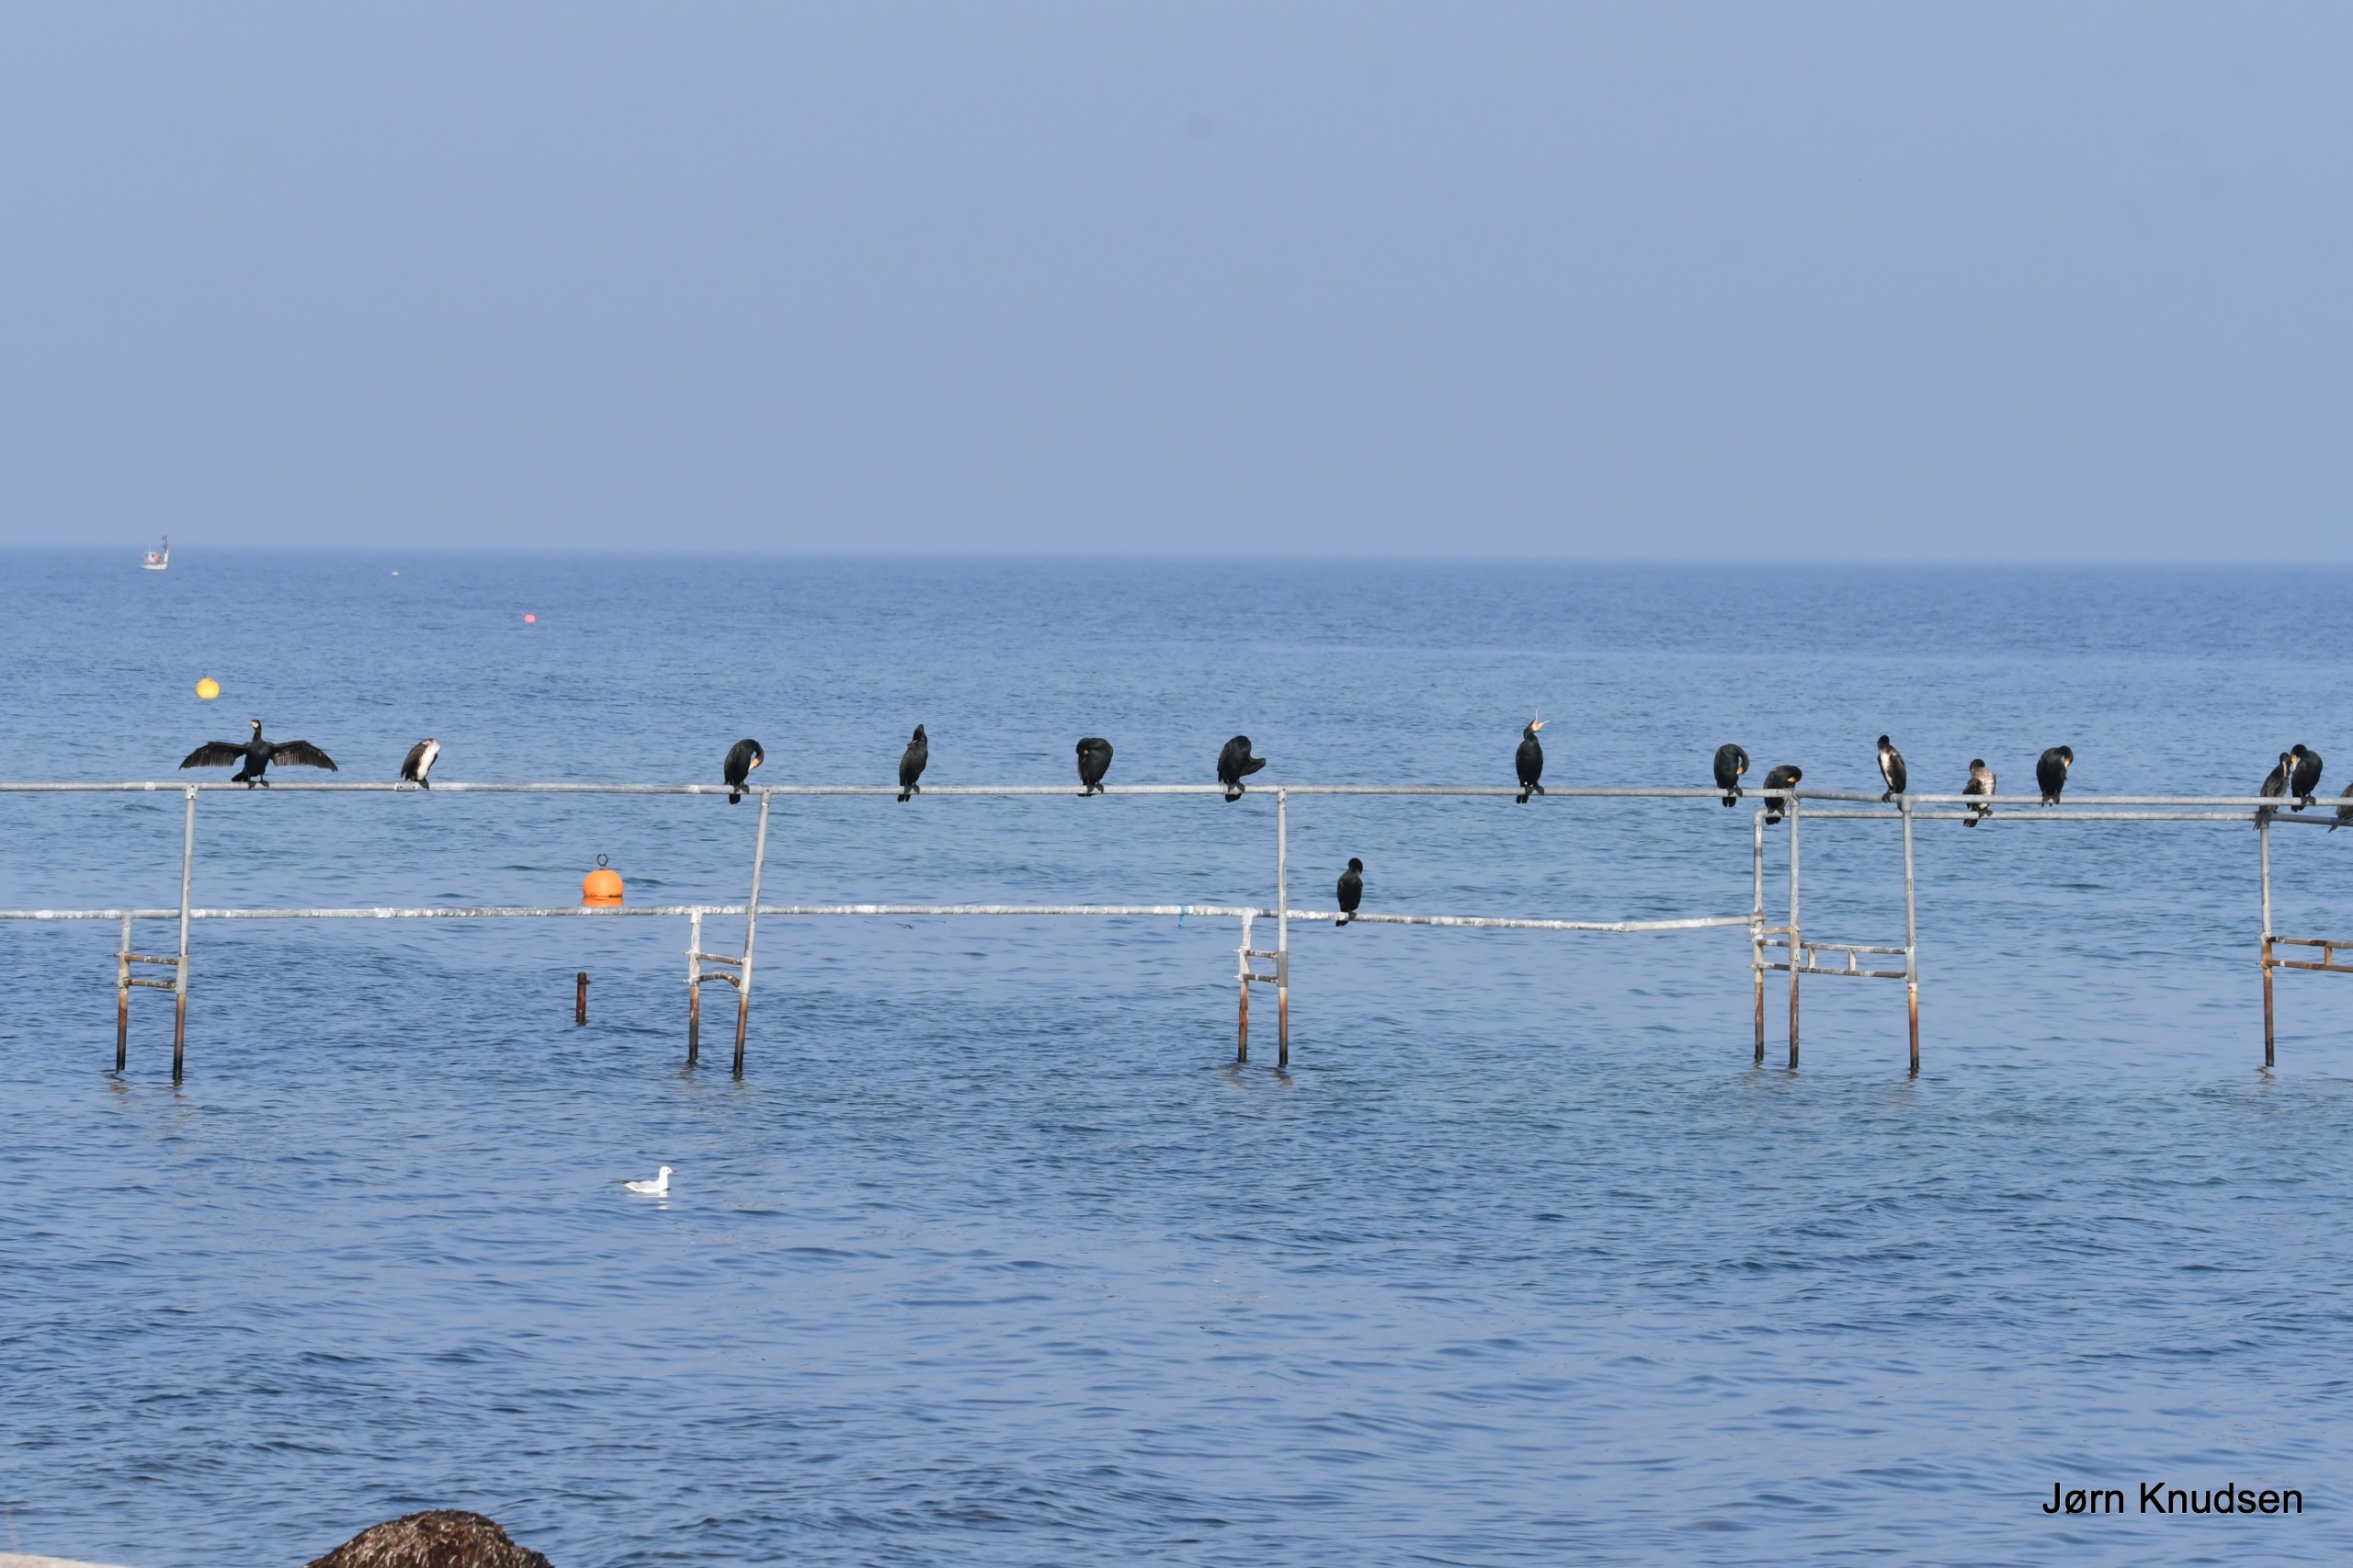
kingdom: Animalia
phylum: Chordata
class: Aves
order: Suliformes
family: Phalacrocoracidae
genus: Phalacrocorax
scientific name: Phalacrocorax carbo
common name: Skarv
